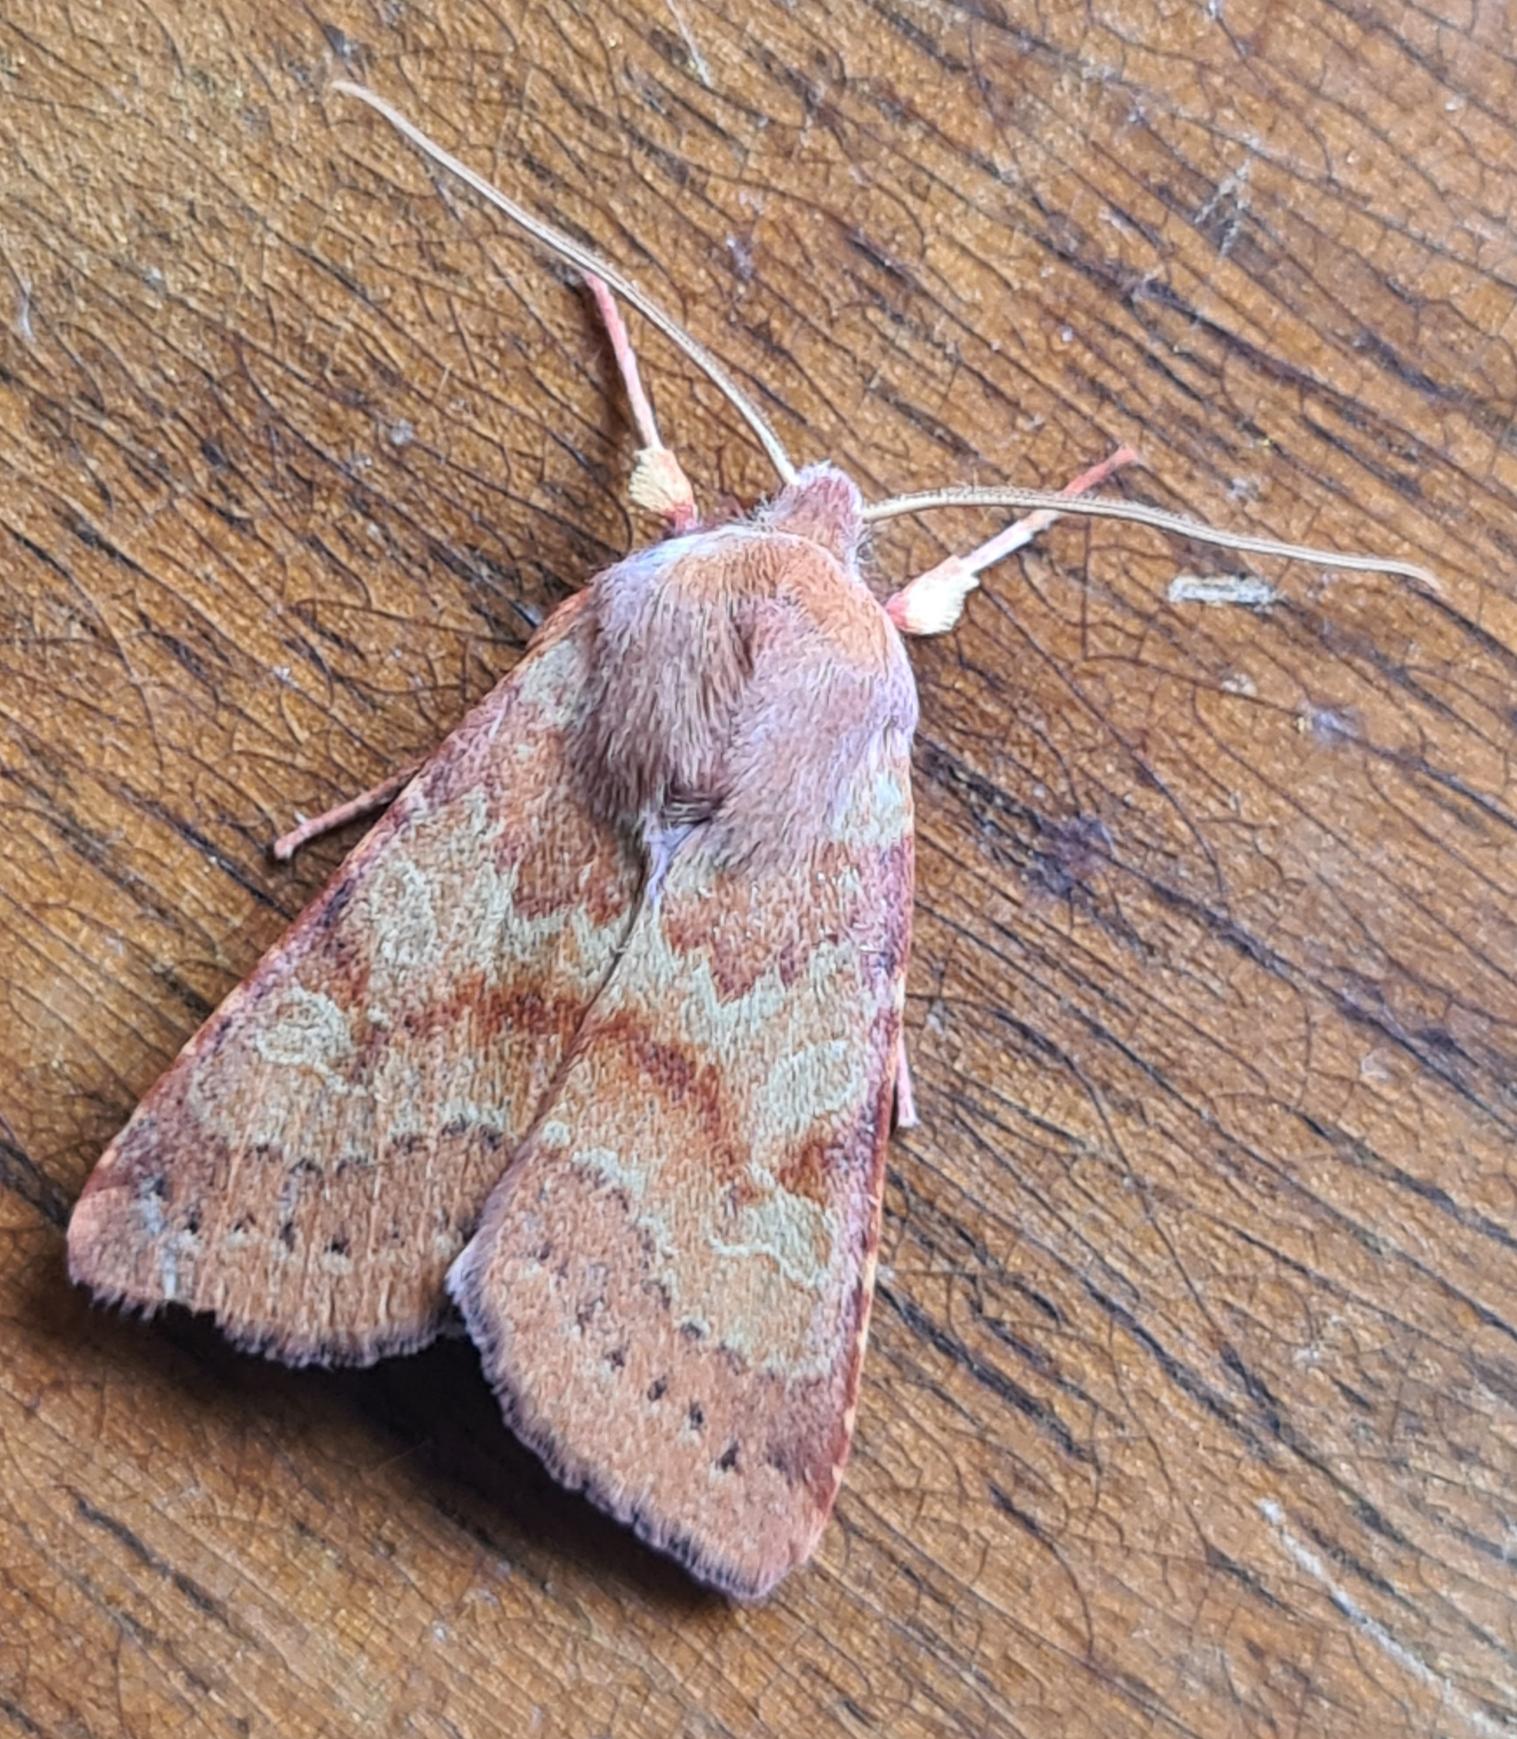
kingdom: Animalia
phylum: Arthropoda
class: Insecta
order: Lepidoptera
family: Noctuidae
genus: Agrochola
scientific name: Agrochola Anchoscelis helvola
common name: Rød høstugle
